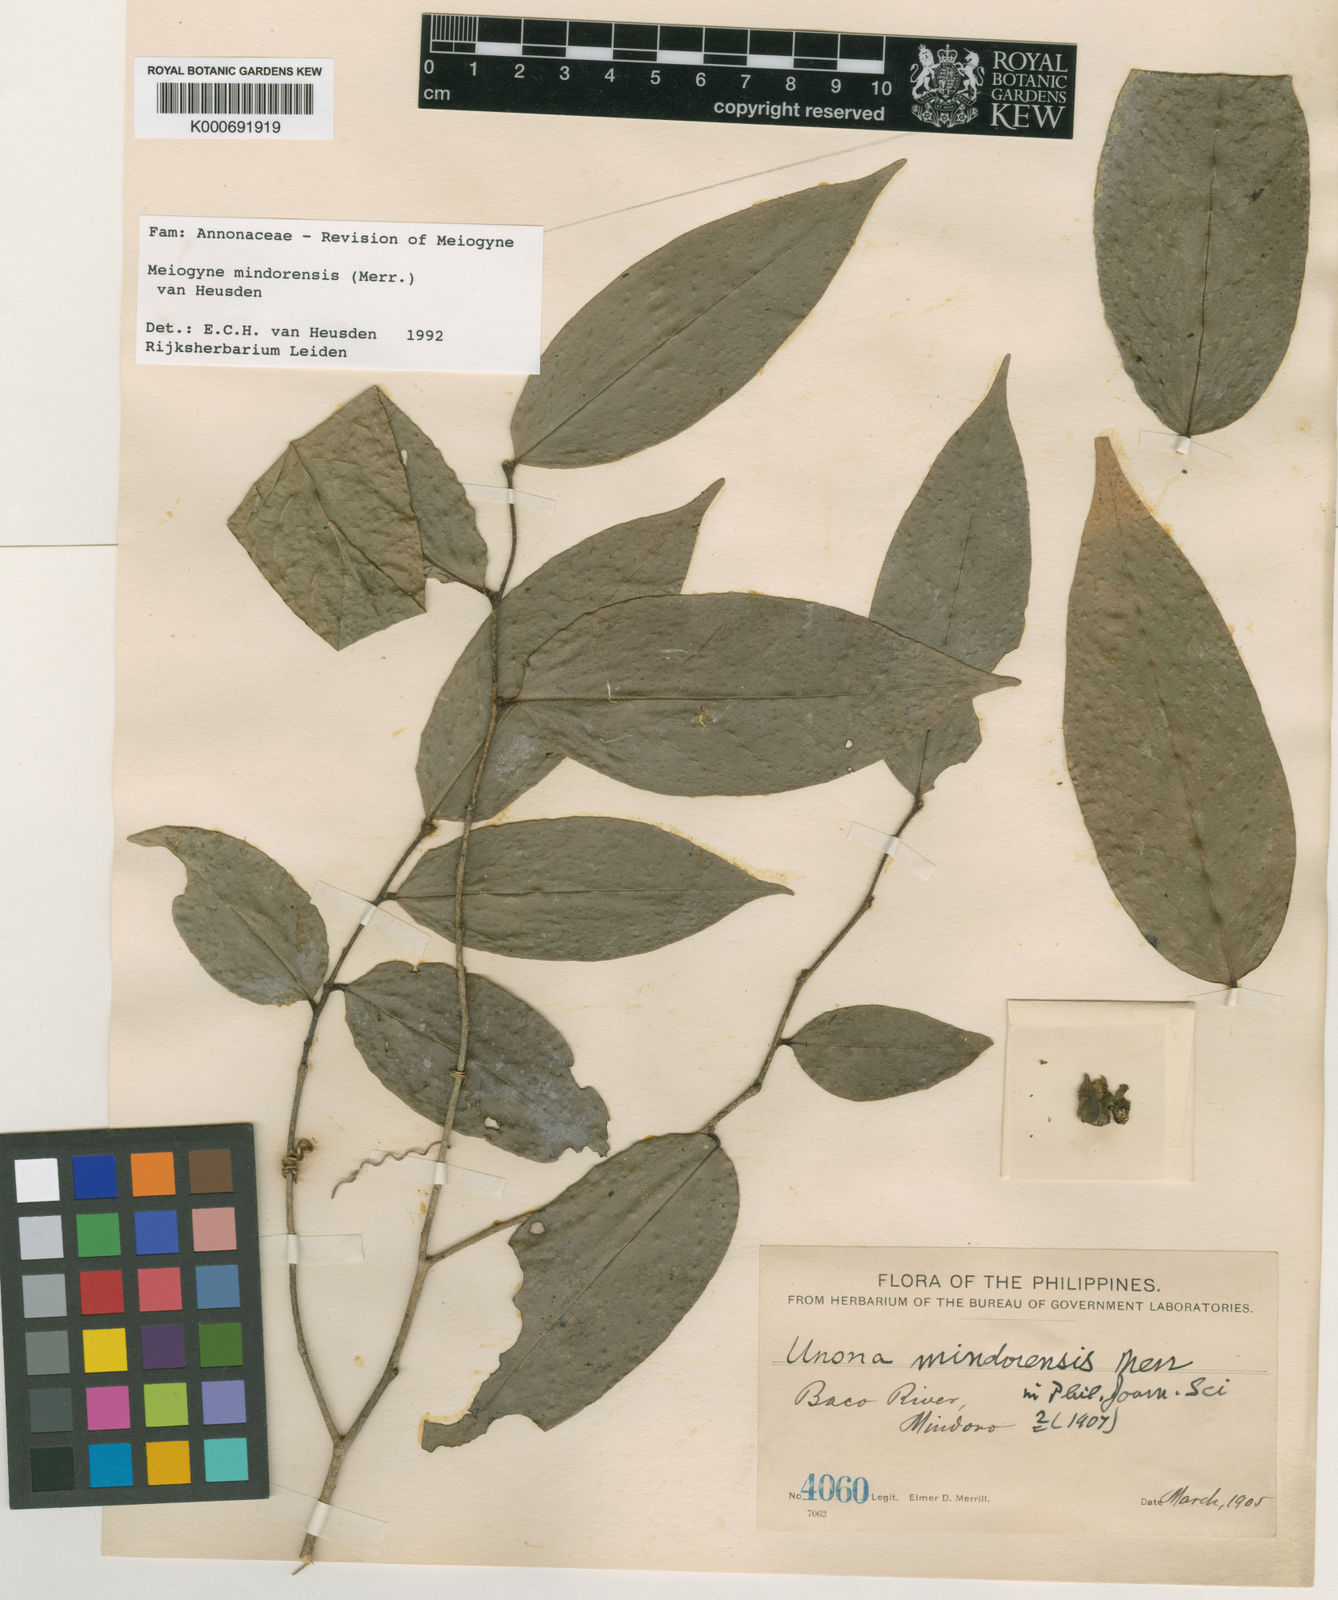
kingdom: Plantae
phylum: Tracheophyta
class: Magnoliopsida
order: Magnoliales
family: Annonaceae
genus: Oncodostigma
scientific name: Oncodostigma
